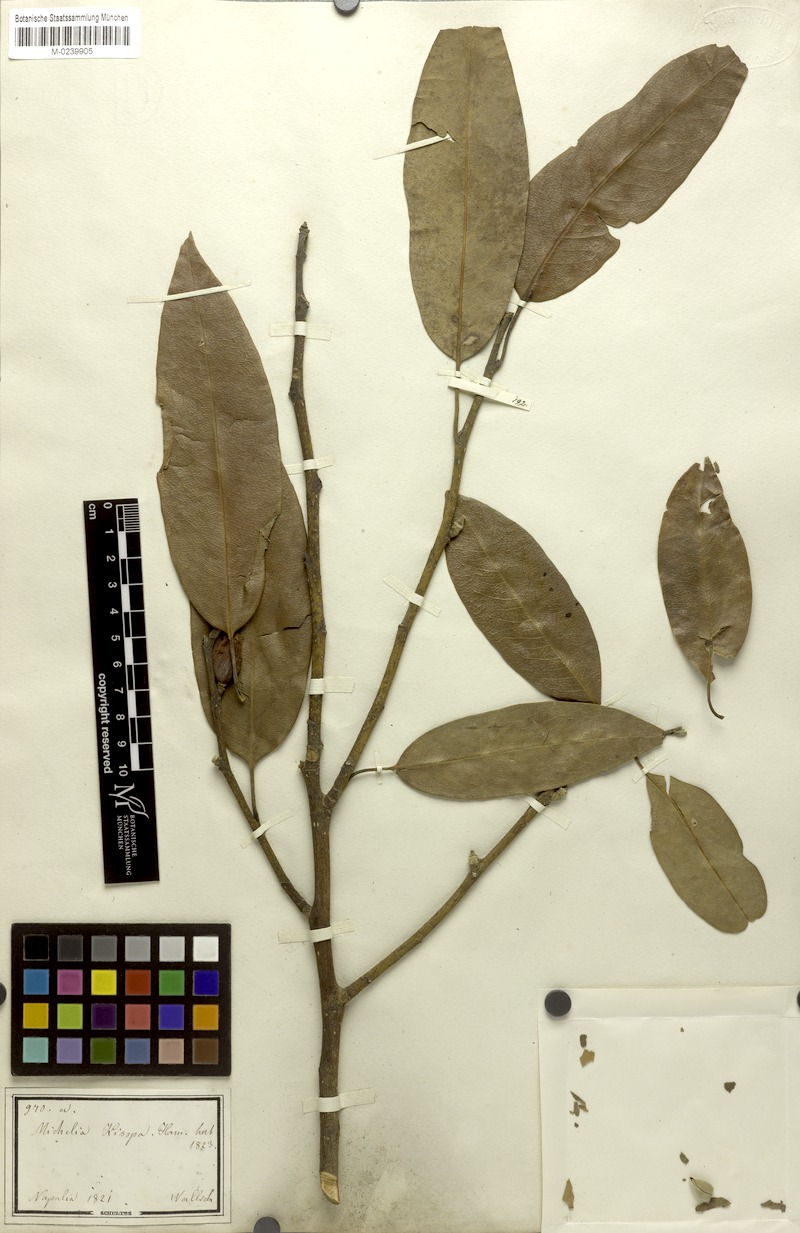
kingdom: Plantae
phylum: Tracheophyta
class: Magnoliopsida
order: Magnoliales
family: Magnoliaceae
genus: Magnolia
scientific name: Magnolia kisopa
